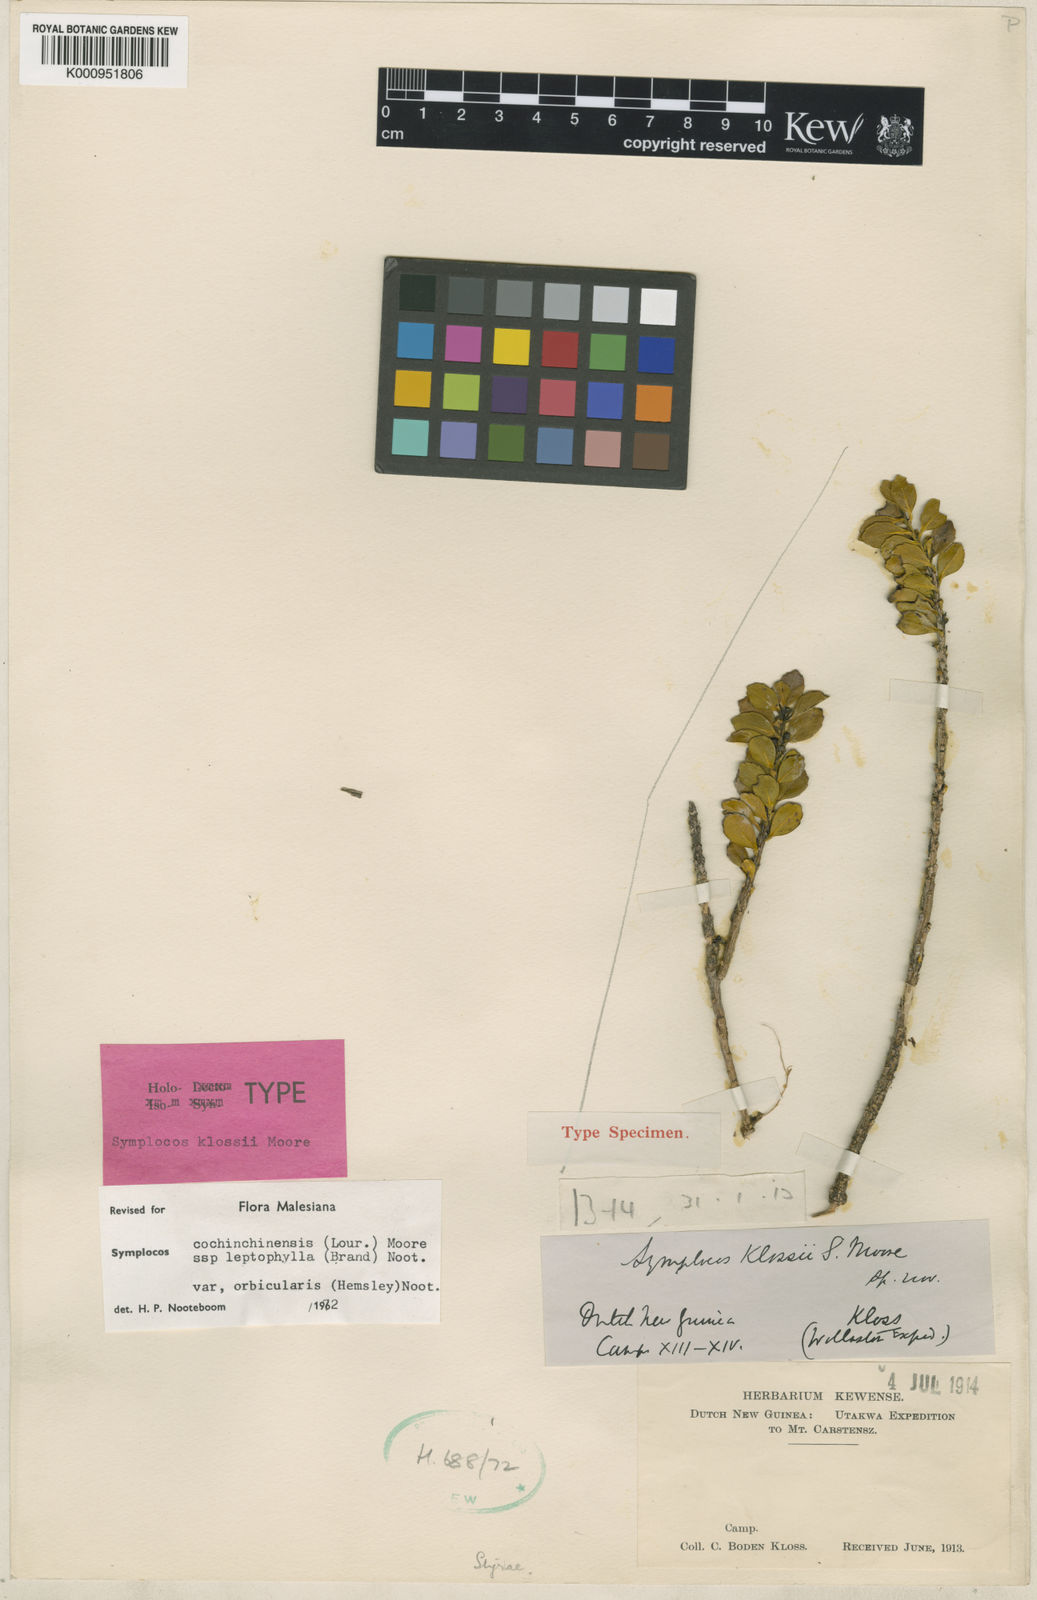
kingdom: Plantae
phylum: Tracheophyta
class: Magnoliopsida
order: Ericales
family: Symplocaceae
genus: Symplocos
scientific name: Symplocos cochinchinensis
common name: Buff hazelwood
